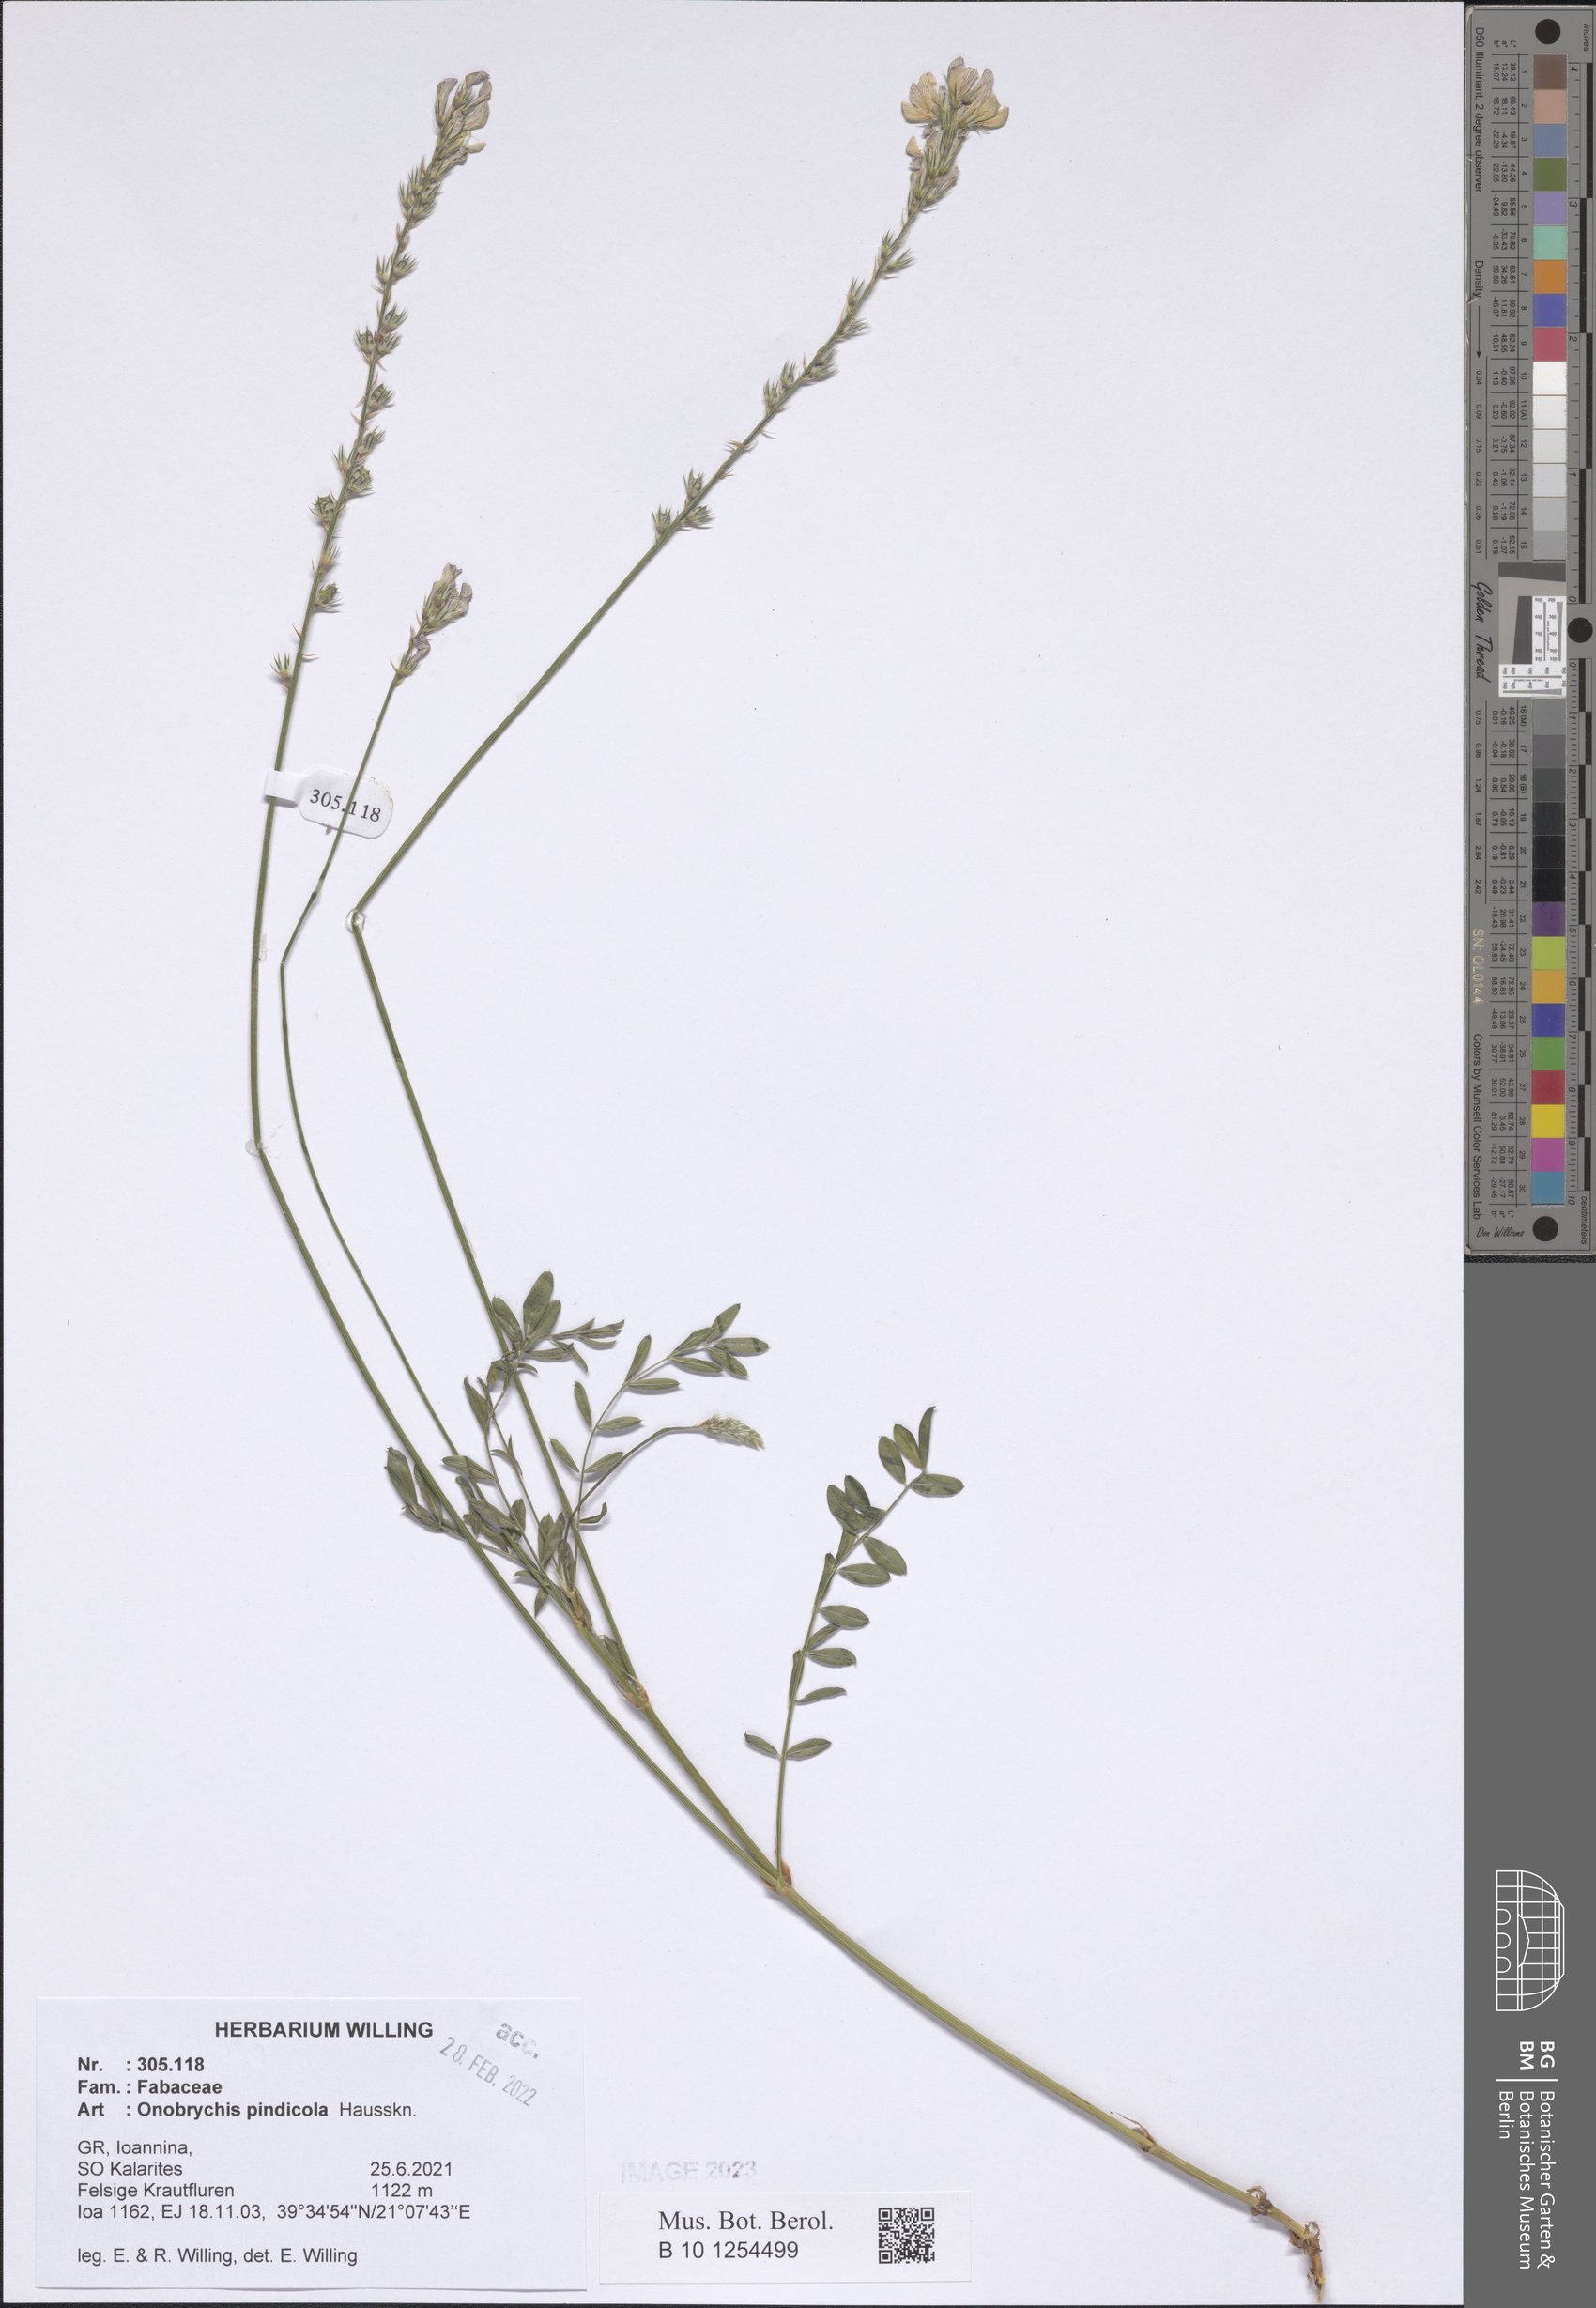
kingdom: Plantae
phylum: Tracheophyta
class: Magnoliopsida
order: Fabales
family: Fabaceae
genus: Onobrychis
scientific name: Onobrychis pindicola
